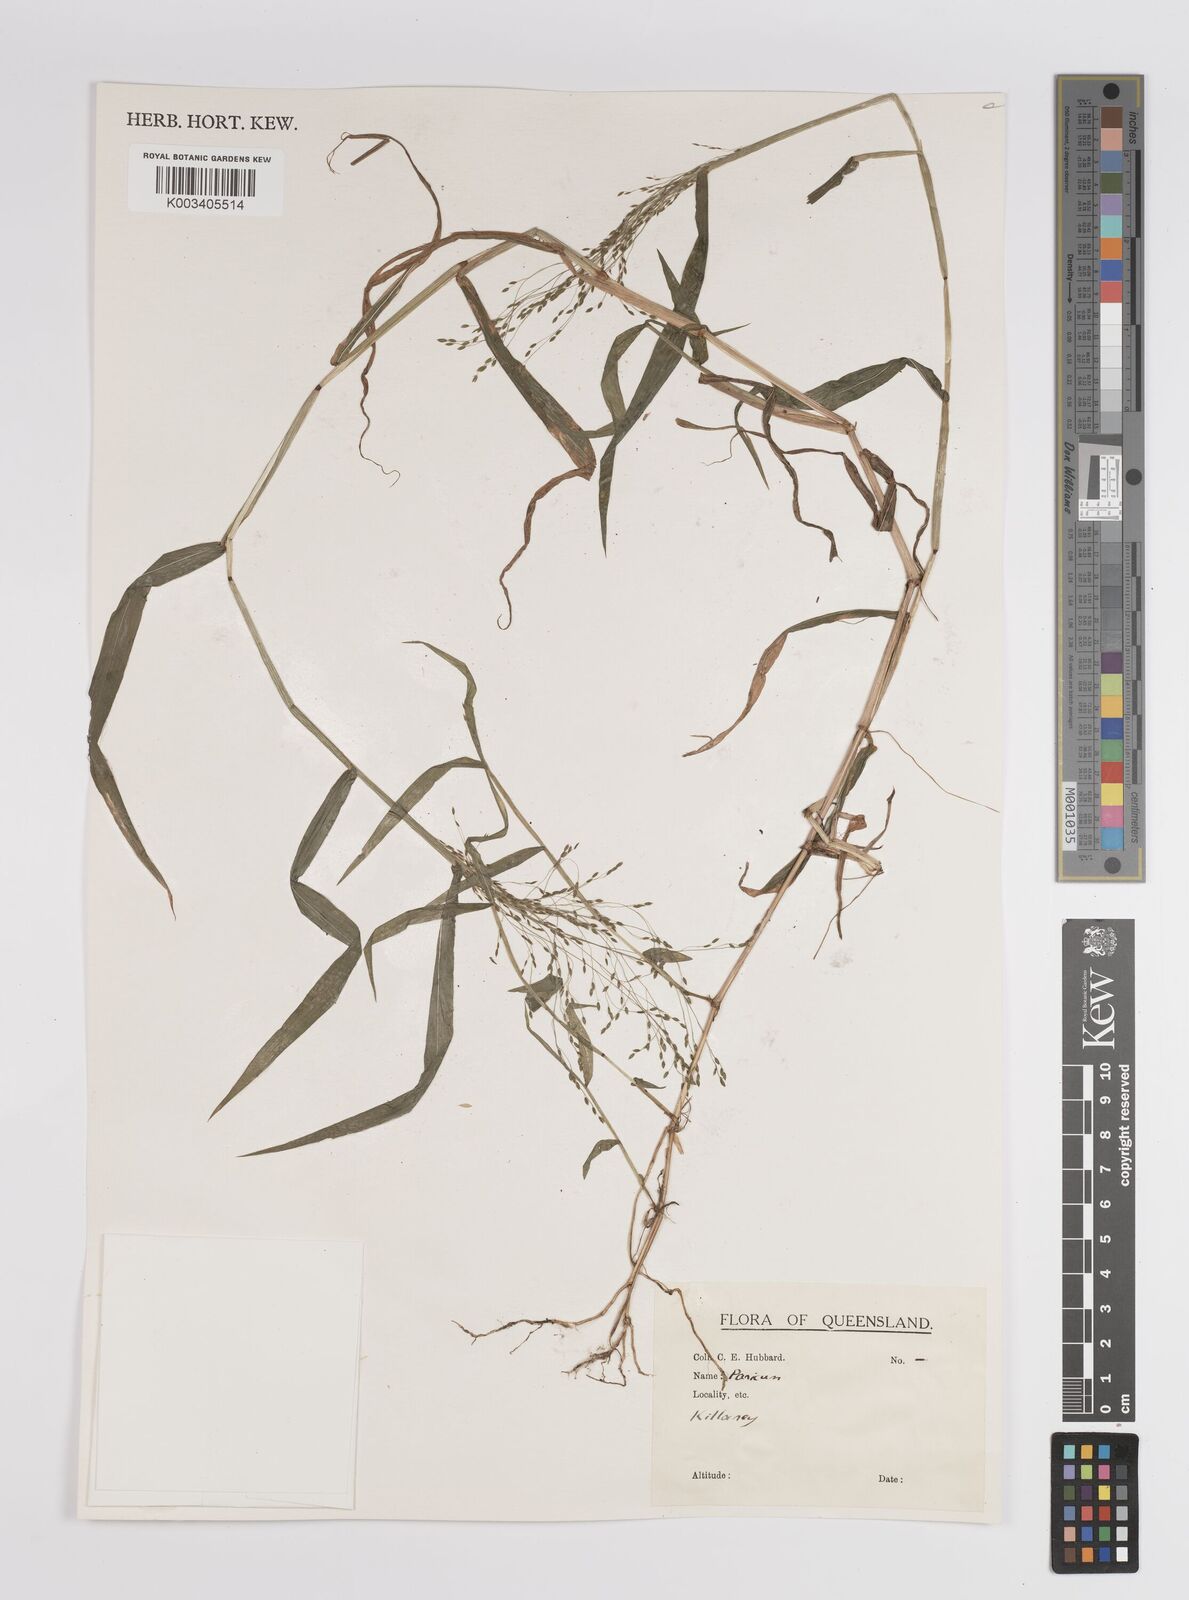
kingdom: Plantae
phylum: Tracheophyta
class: Liliopsida
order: Poales
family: Poaceae
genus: Panicum
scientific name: Panicum
